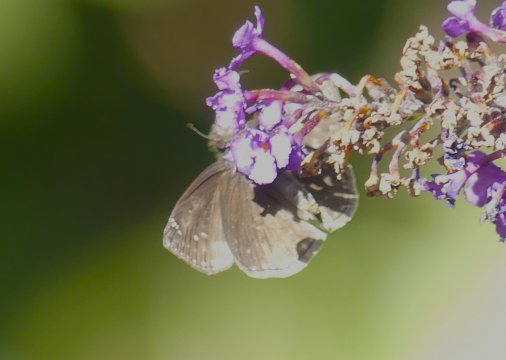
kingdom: Animalia
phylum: Arthropoda
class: Insecta
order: Lepidoptera
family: Hesperiidae
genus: Gesta
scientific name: Gesta
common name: Wild Indigo Duskywing
